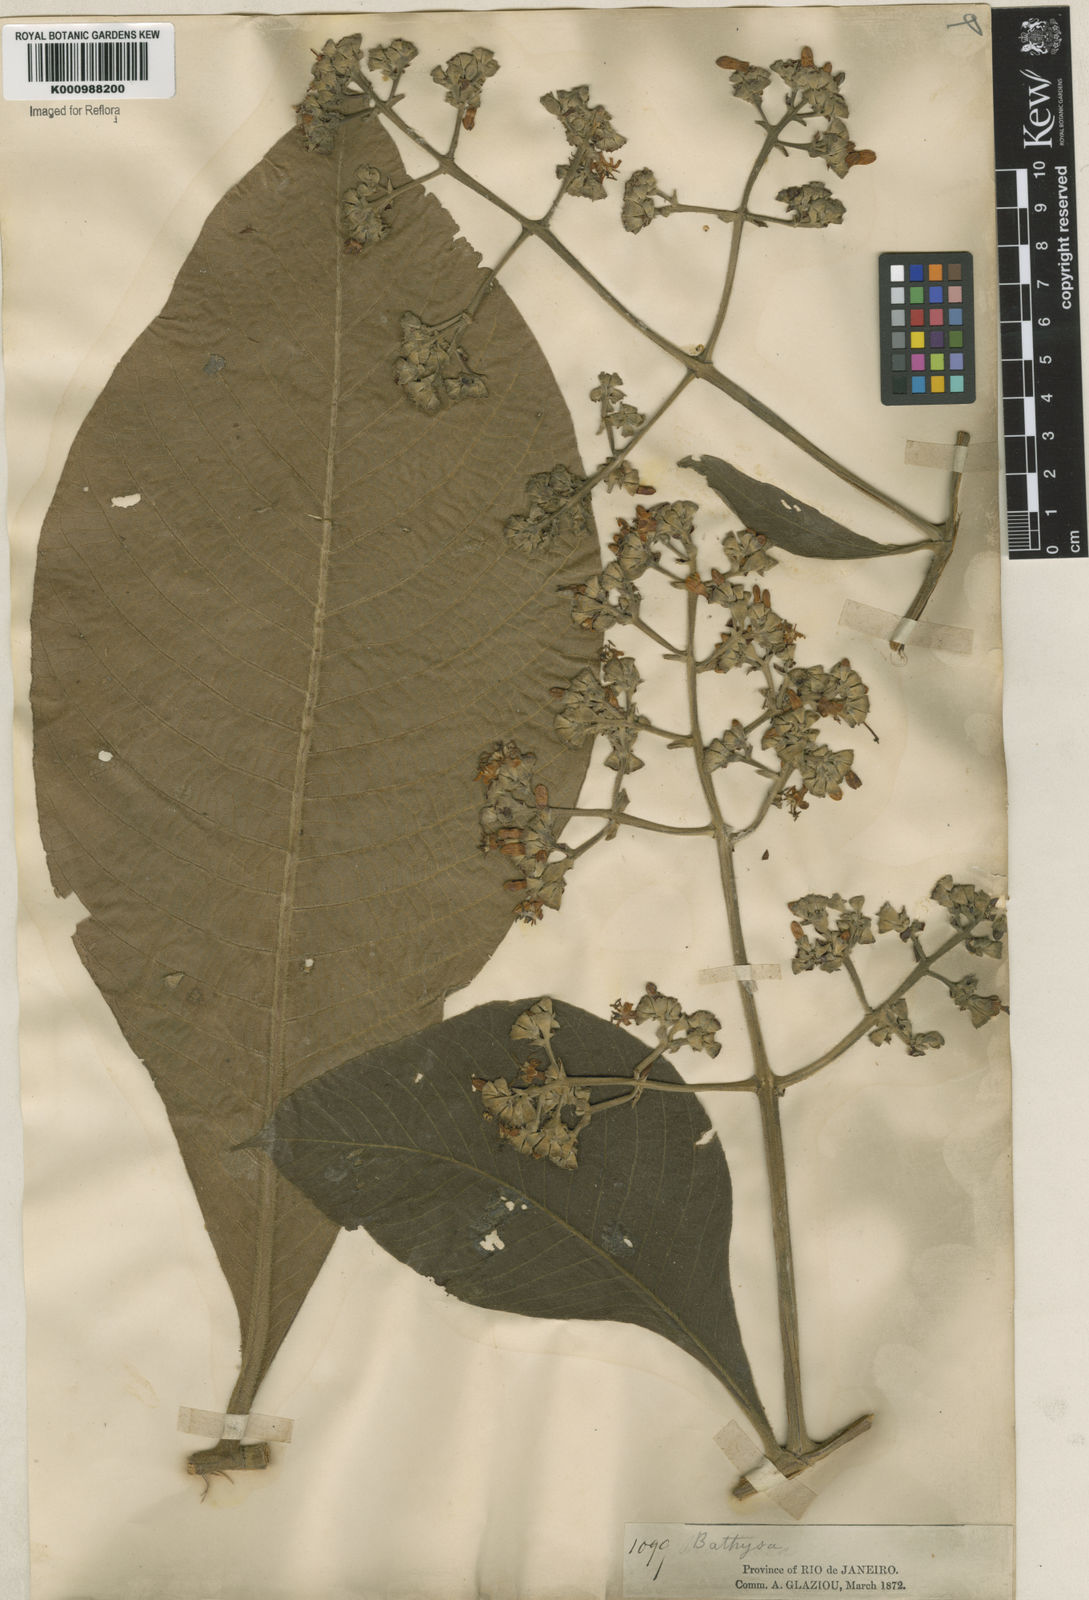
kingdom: Plantae
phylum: Tracheophyta
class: Magnoliopsida
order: Gentianales
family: Rubiaceae
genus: Schizocalyx
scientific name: Schizocalyx cuspidatus
